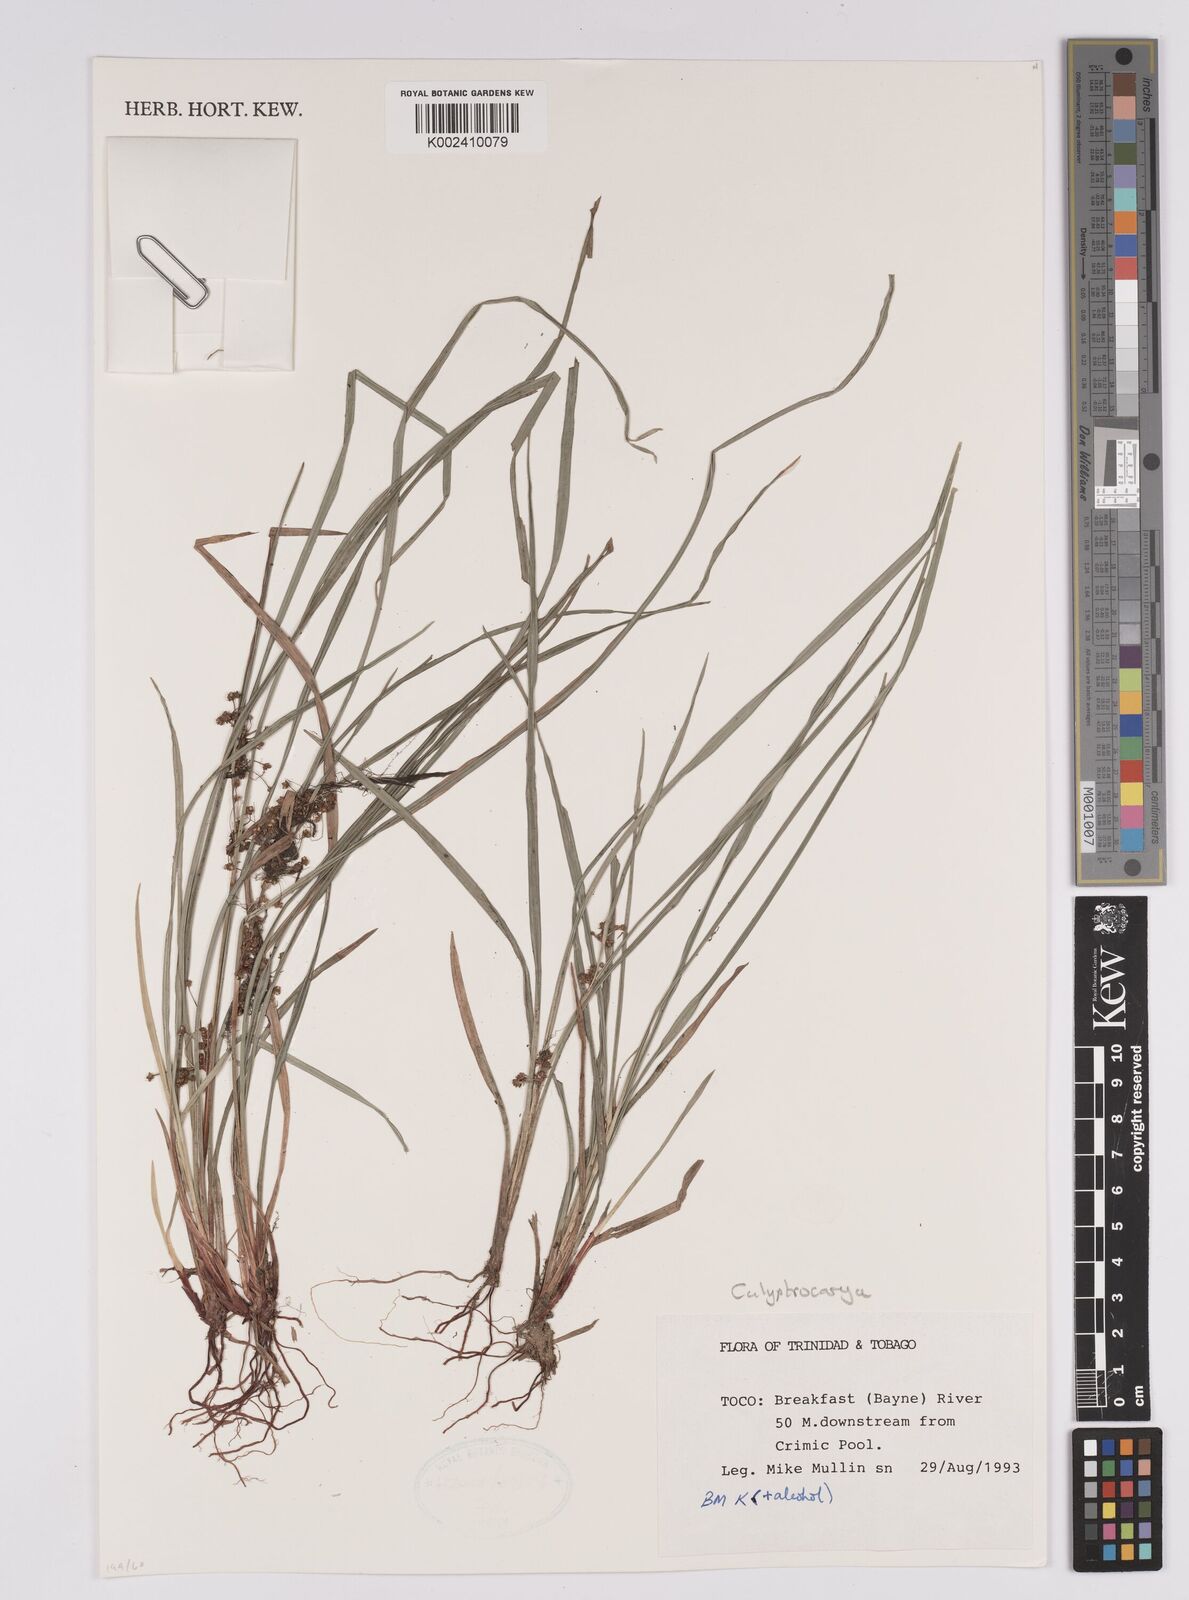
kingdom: Plantae
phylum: Tracheophyta
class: Liliopsida
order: Poales
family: Cyperaceae
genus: Calyptrocarya
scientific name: Calyptrocarya glomerulata
